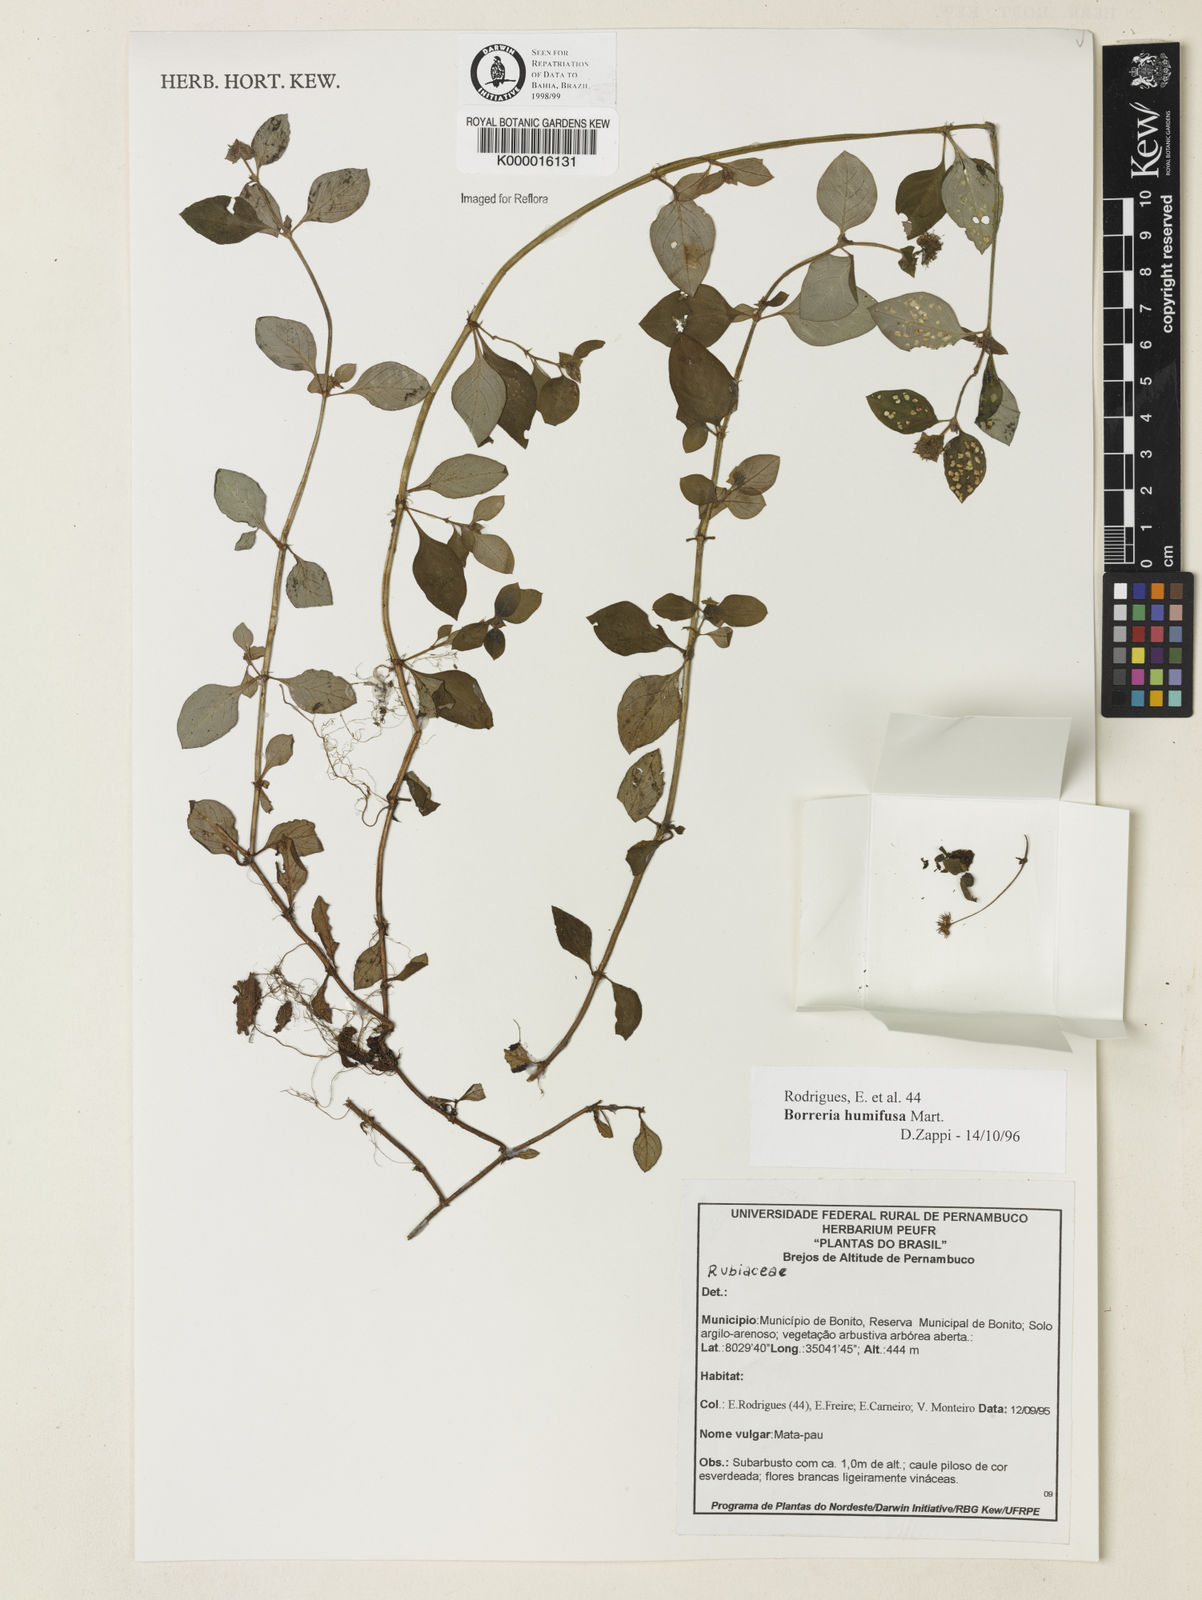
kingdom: Plantae
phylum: Tracheophyta
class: Magnoliopsida
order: Gentianales
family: Rubiaceae
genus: Spermacoce
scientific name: Spermacoce scabiosoides
